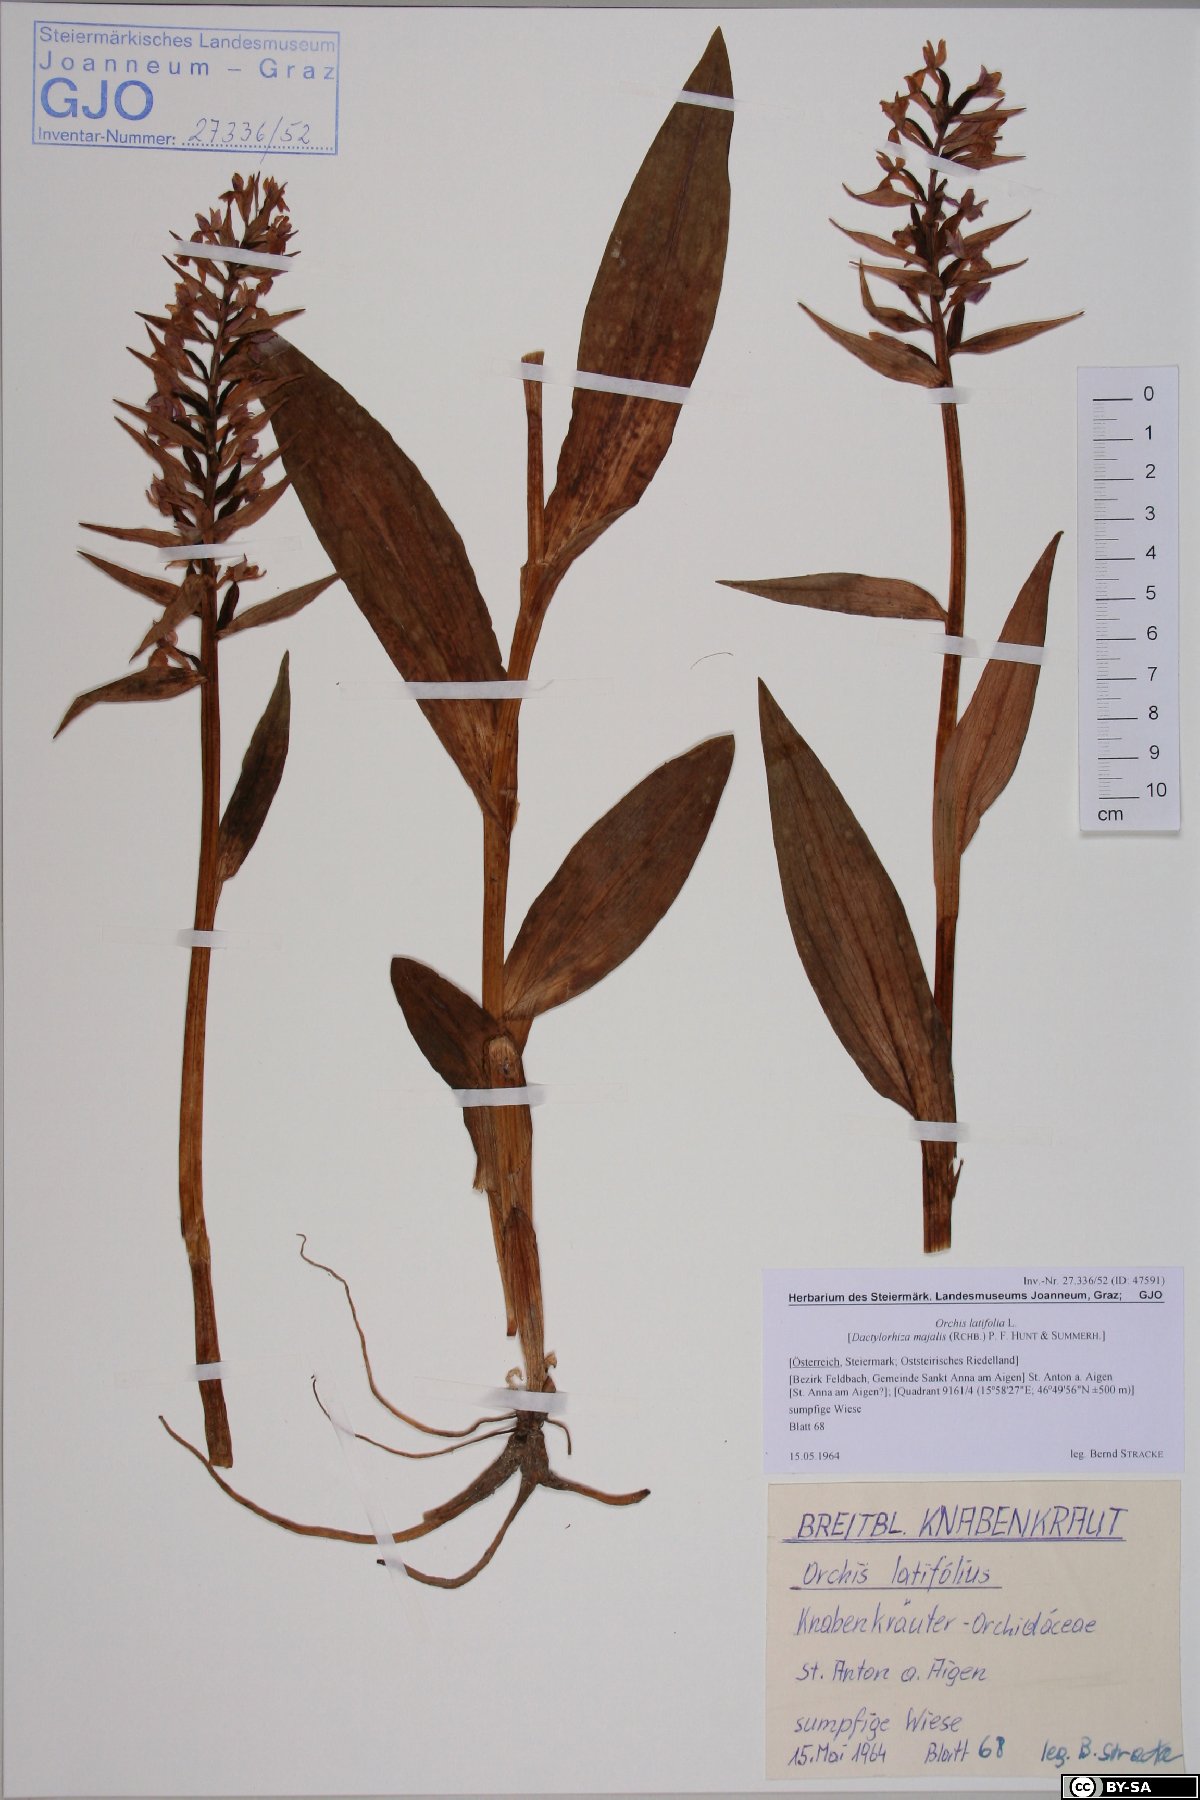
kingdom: Plantae
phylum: Tracheophyta
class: Liliopsida
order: Asparagales
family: Orchidaceae
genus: Dactylorhiza
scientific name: Dactylorhiza incarnata
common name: Early marsh-orchid
